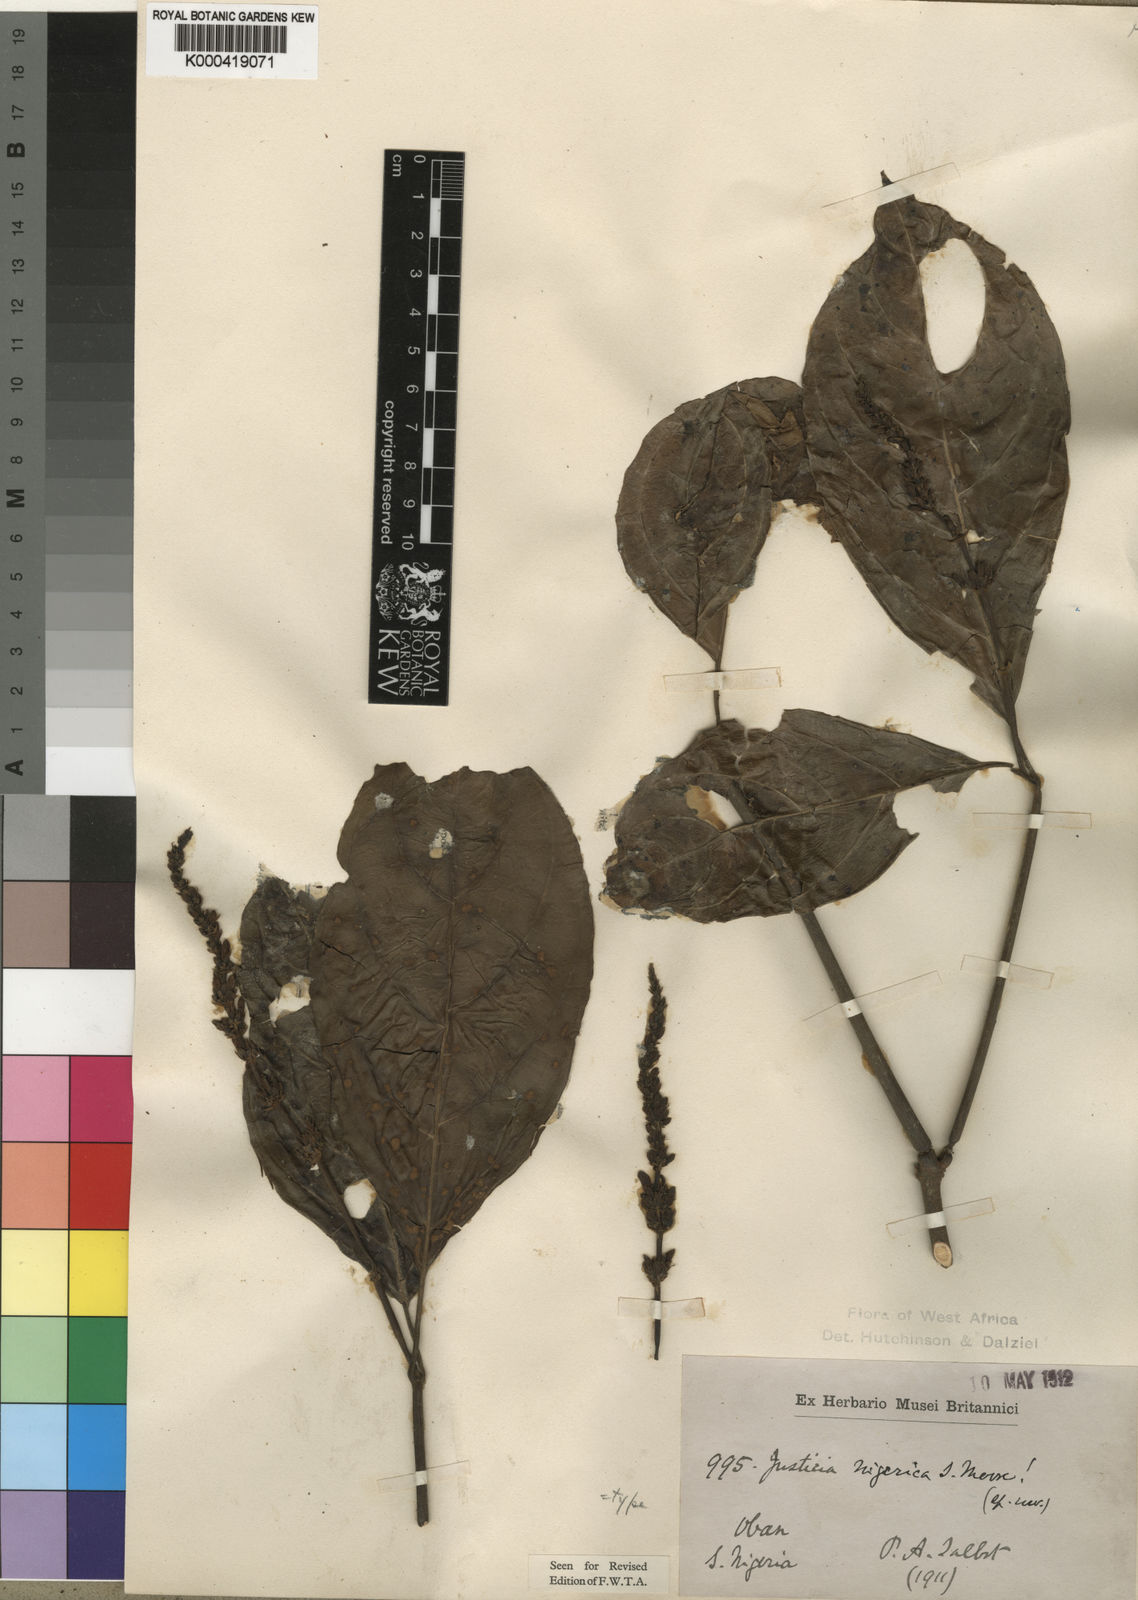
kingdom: Plantae
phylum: Tracheophyta
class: Magnoliopsida
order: Lamiales
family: Acanthaceae
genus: Justicia
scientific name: Justicia nigerica
